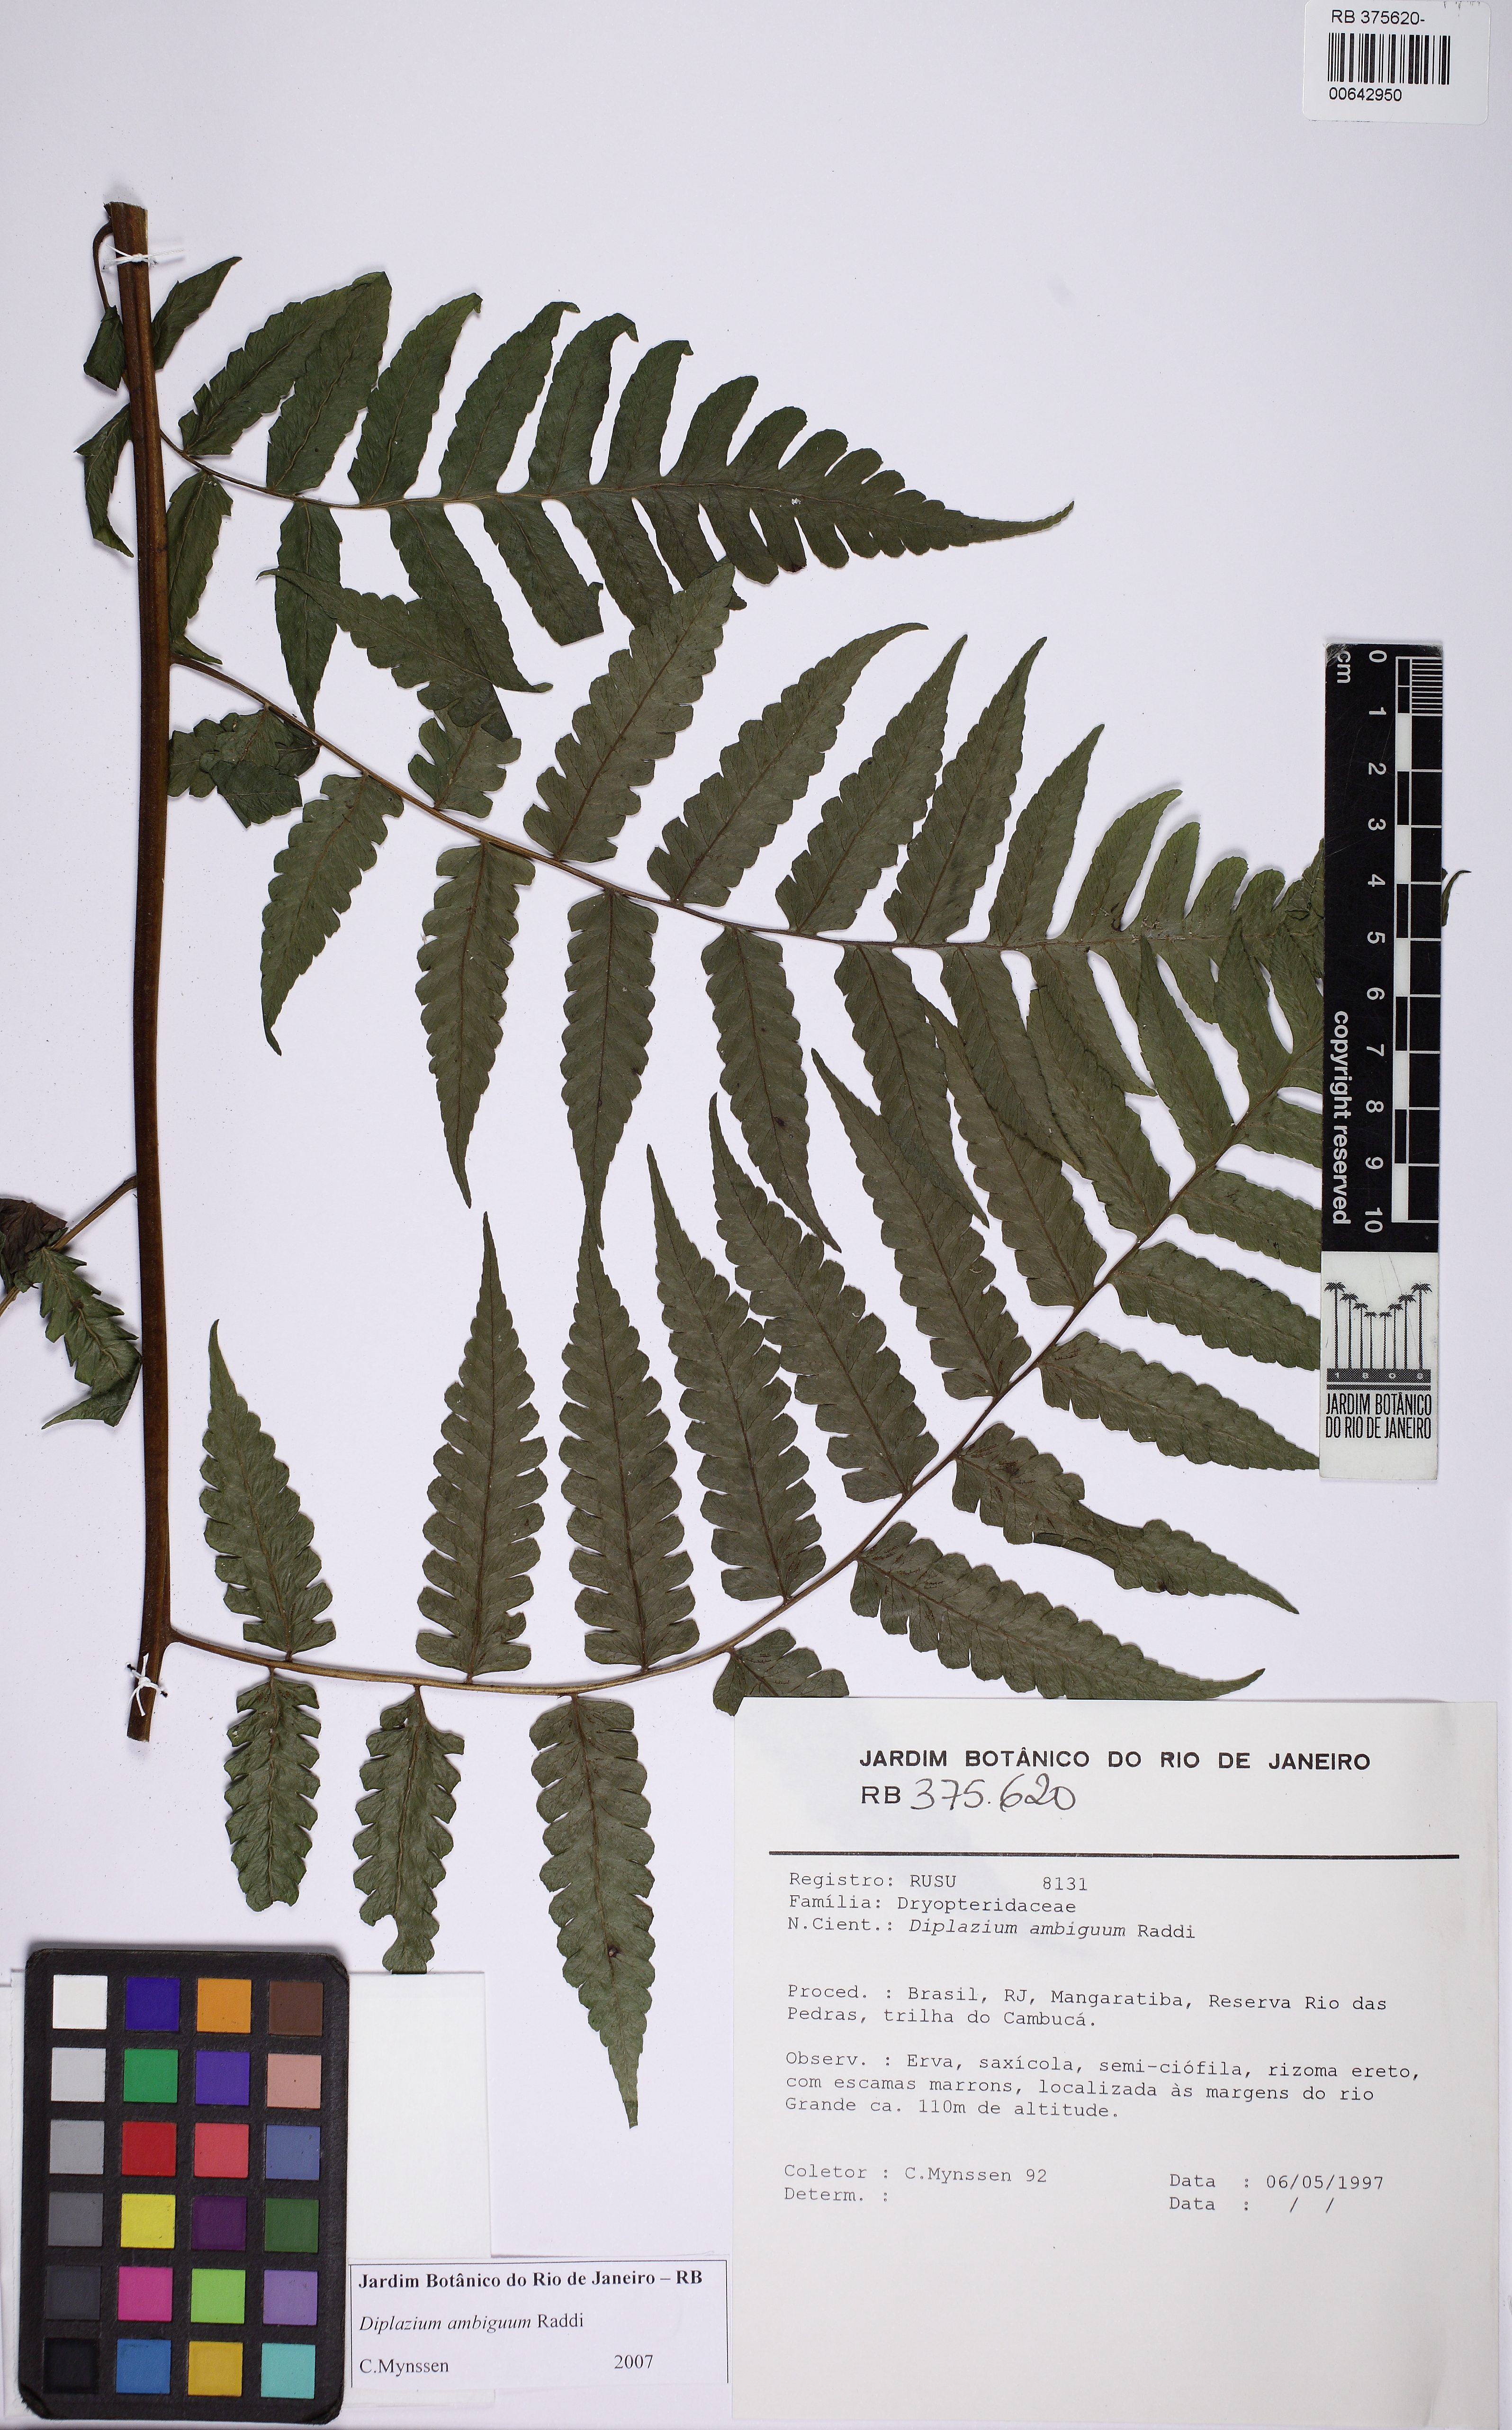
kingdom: Plantae
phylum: Tracheophyta
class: Polypodiopsida
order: Polypodiales
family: Athyriaceae
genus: Diplazium
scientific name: Diplazium ambiguum
